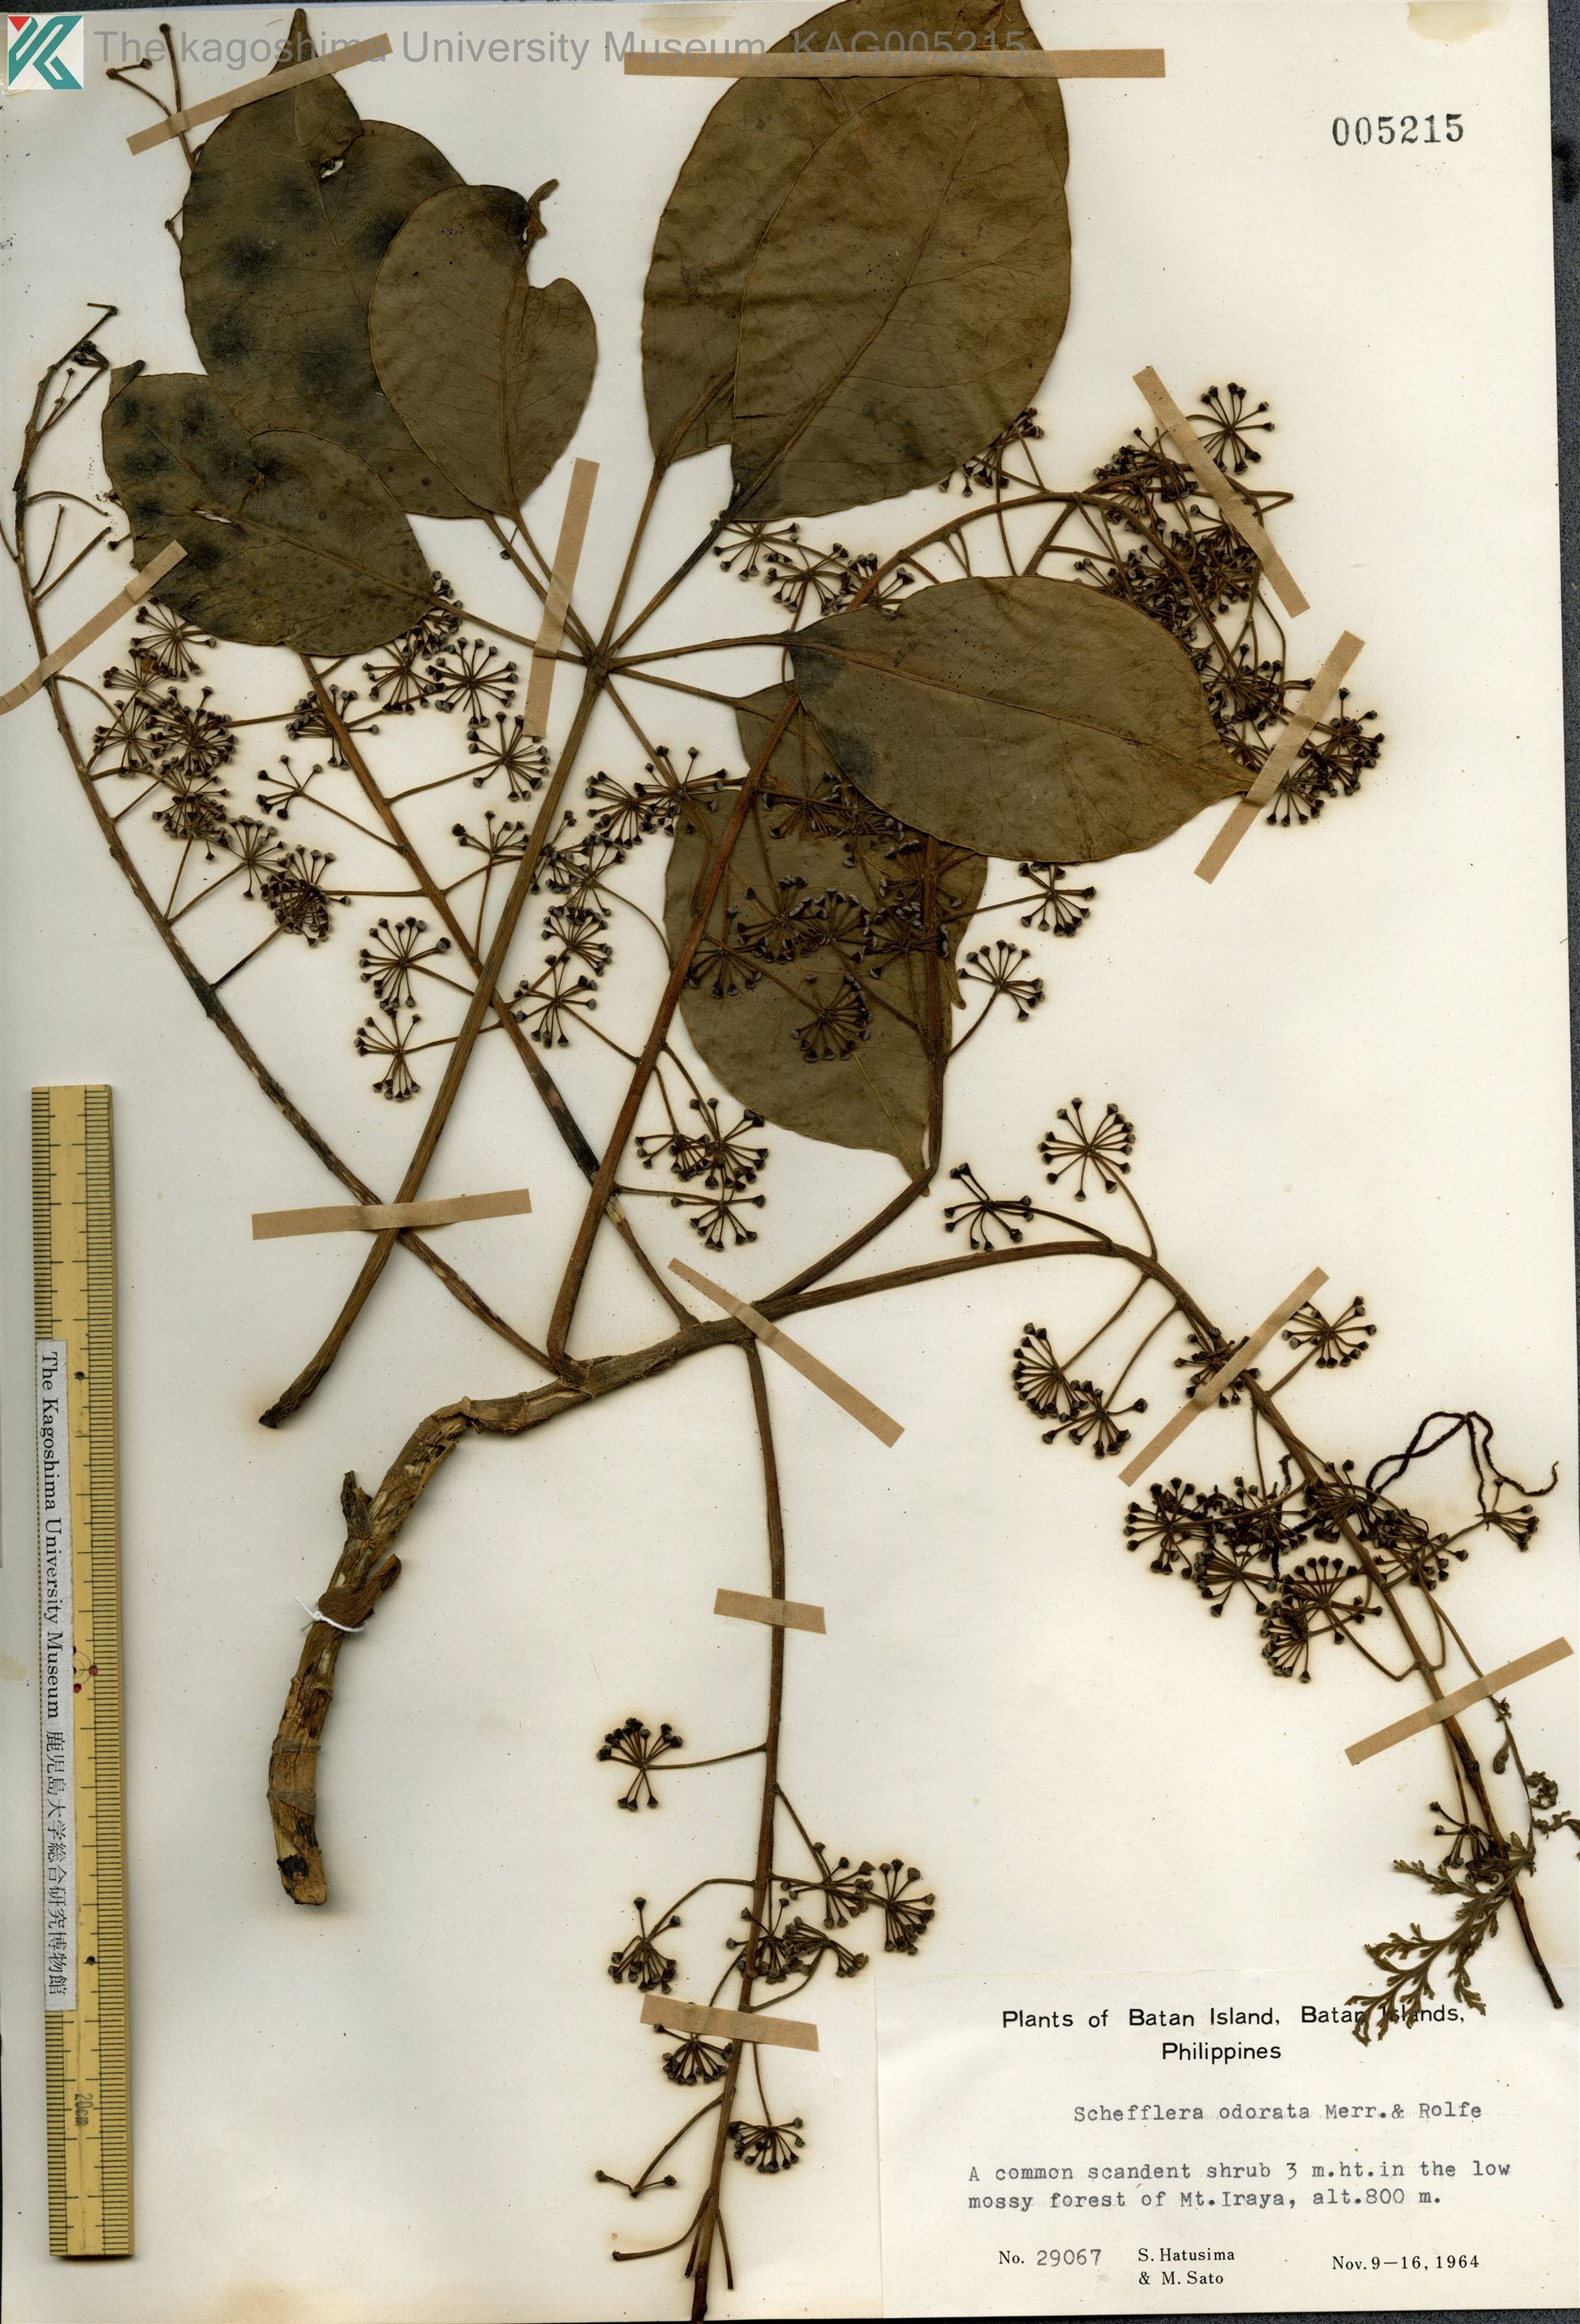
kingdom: Plantae
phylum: Tracheophyta
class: Magnoliopsida
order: Apiales
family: Araliaceae
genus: Heptapleurum
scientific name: Heptapleurum ellipticum
